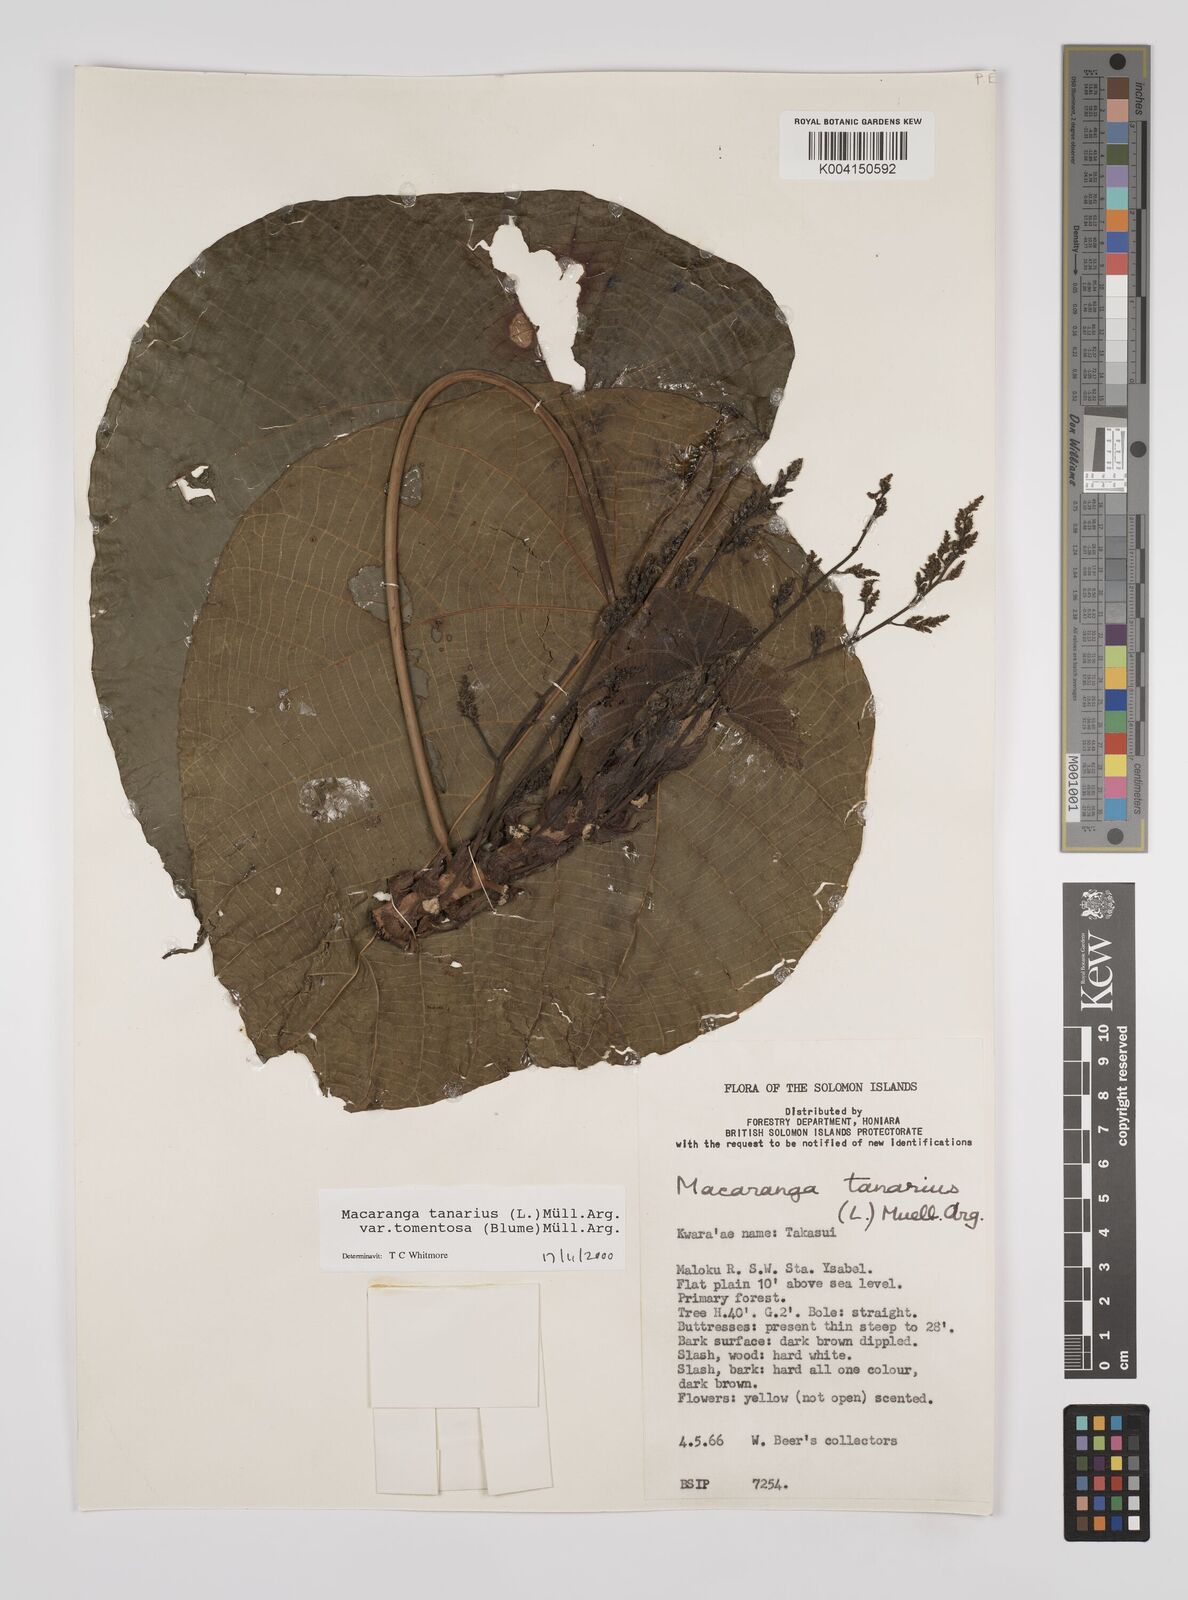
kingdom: Plantae
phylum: Tracheophyta
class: Magnoliopsida
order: Malpighiales
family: Euphorbiaceae
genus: Macaranga
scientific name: Macaranga tanarius
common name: Parasol leaf tree
